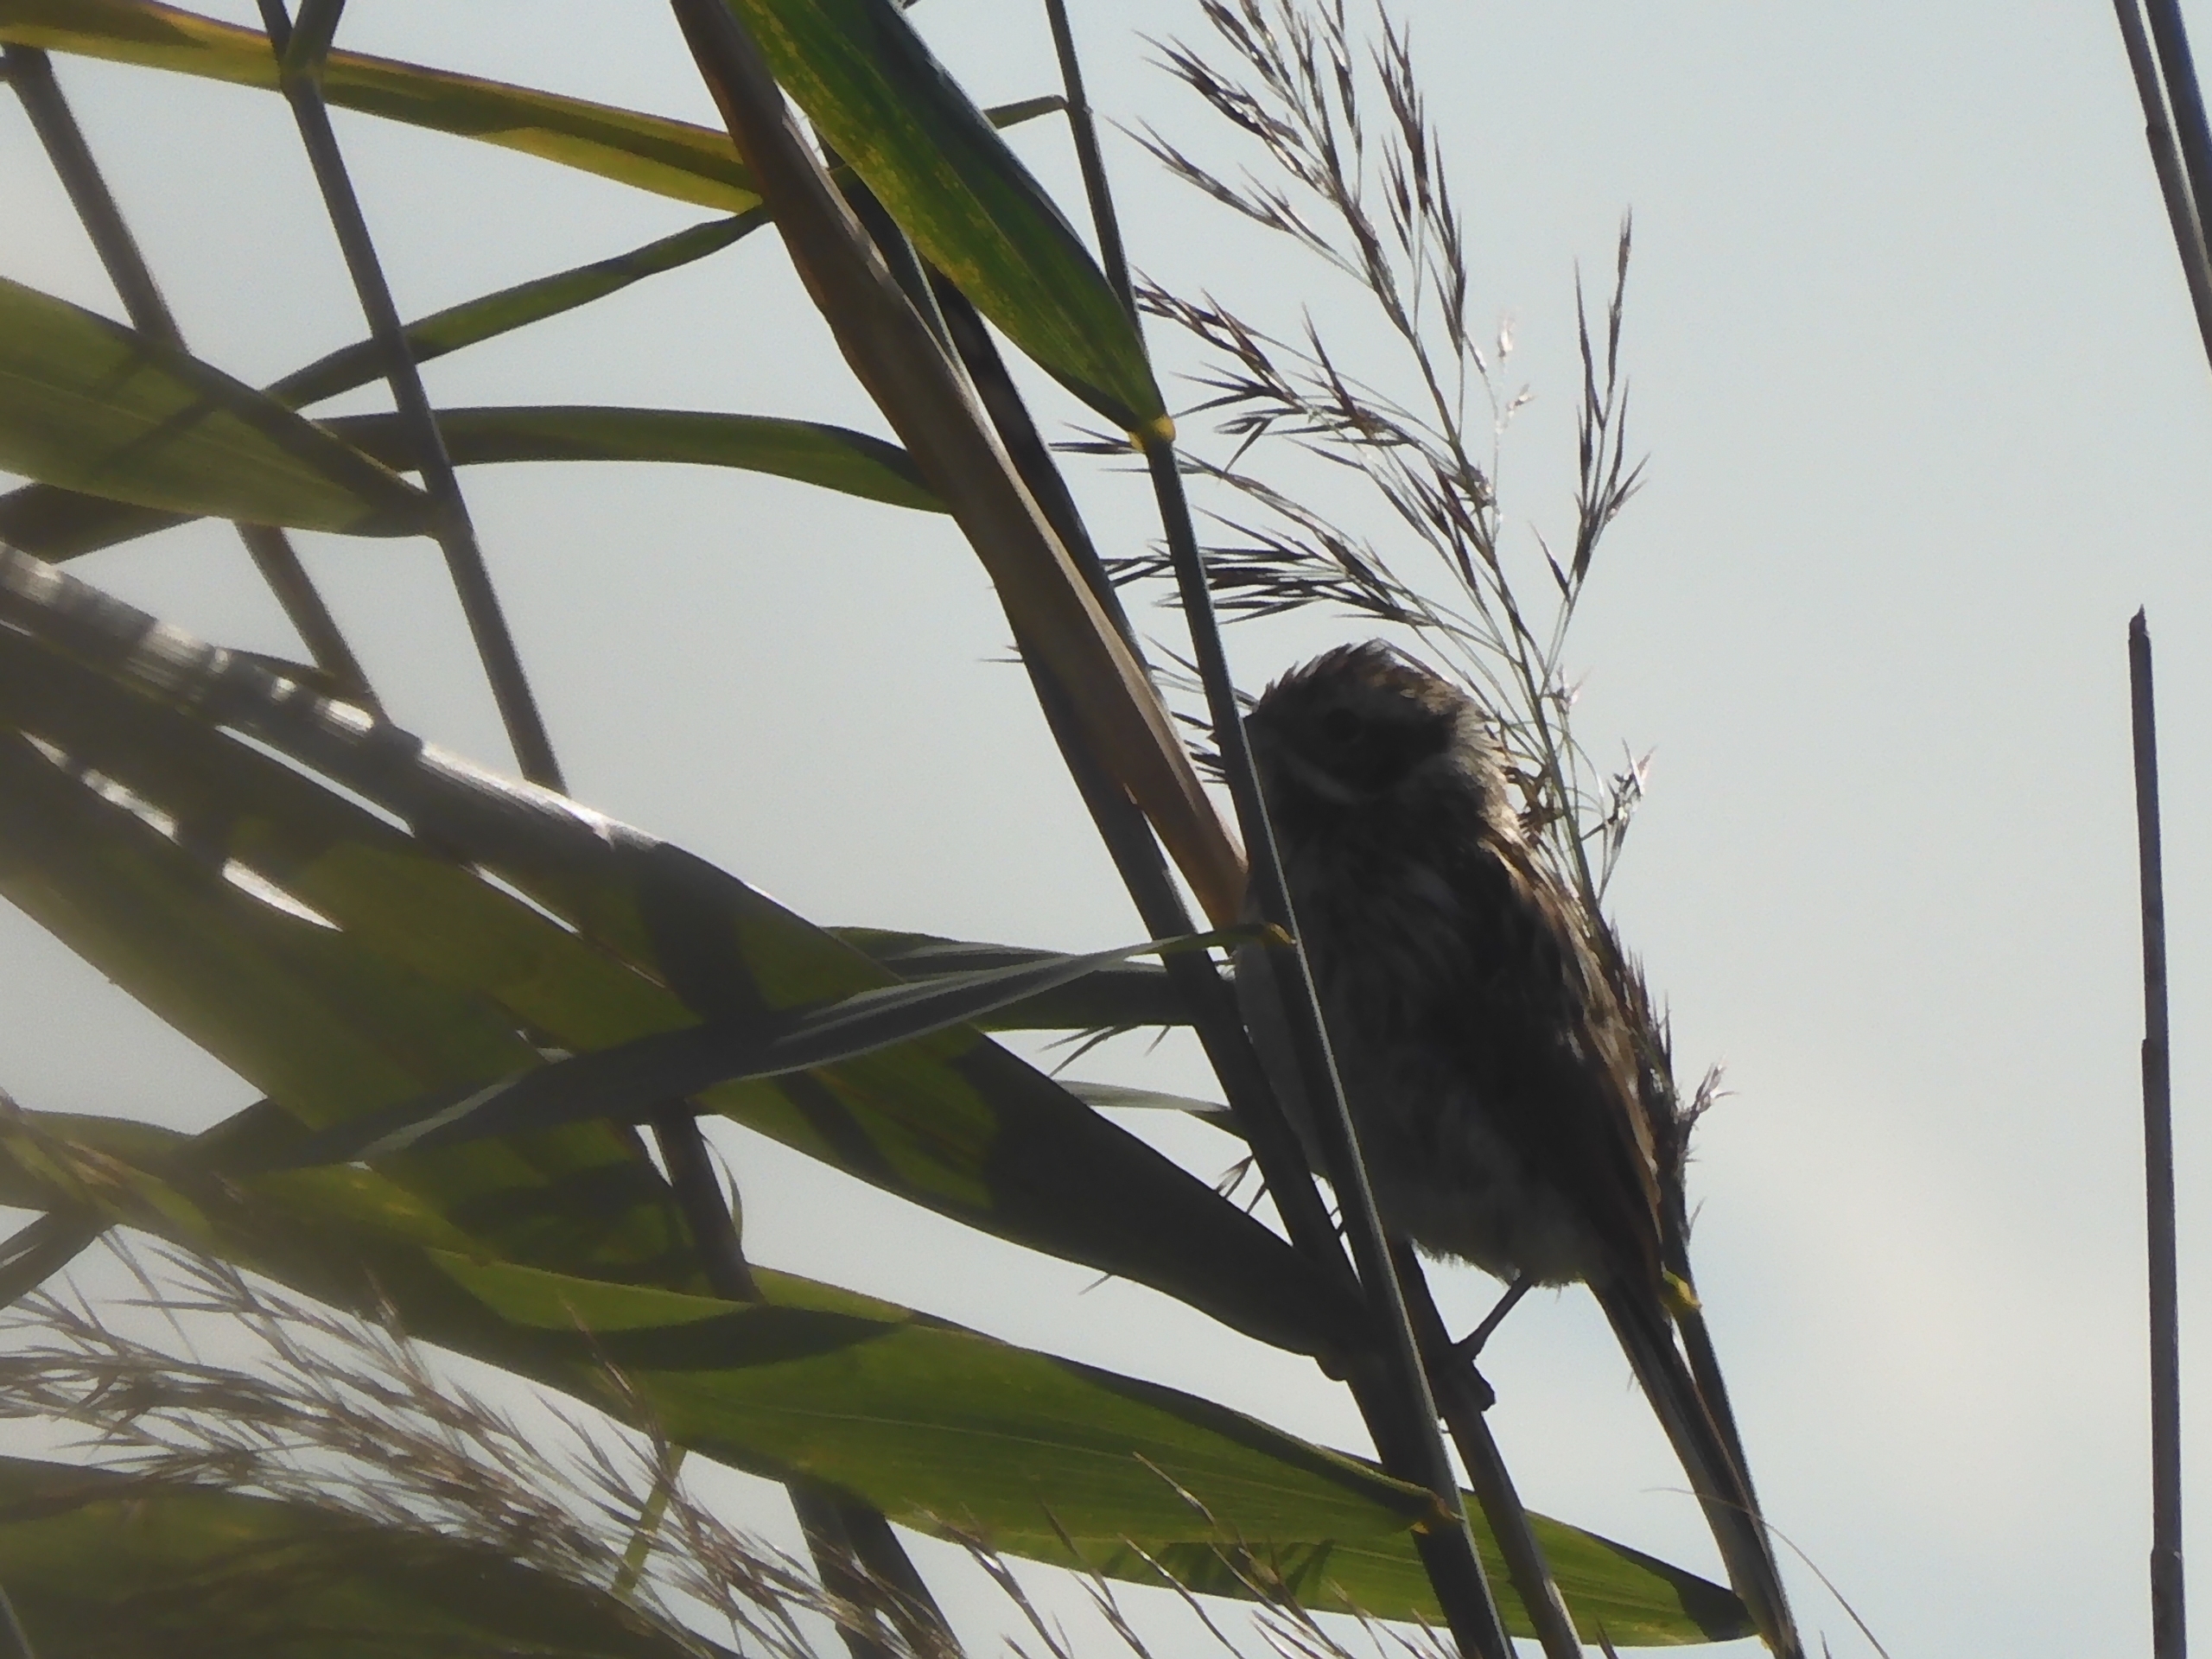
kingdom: Animalia
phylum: Chordata
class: Aves
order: Passeriformes
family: Emberizidae
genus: Emberiza
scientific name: Emberiza schoeniclus
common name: Rørspurv
